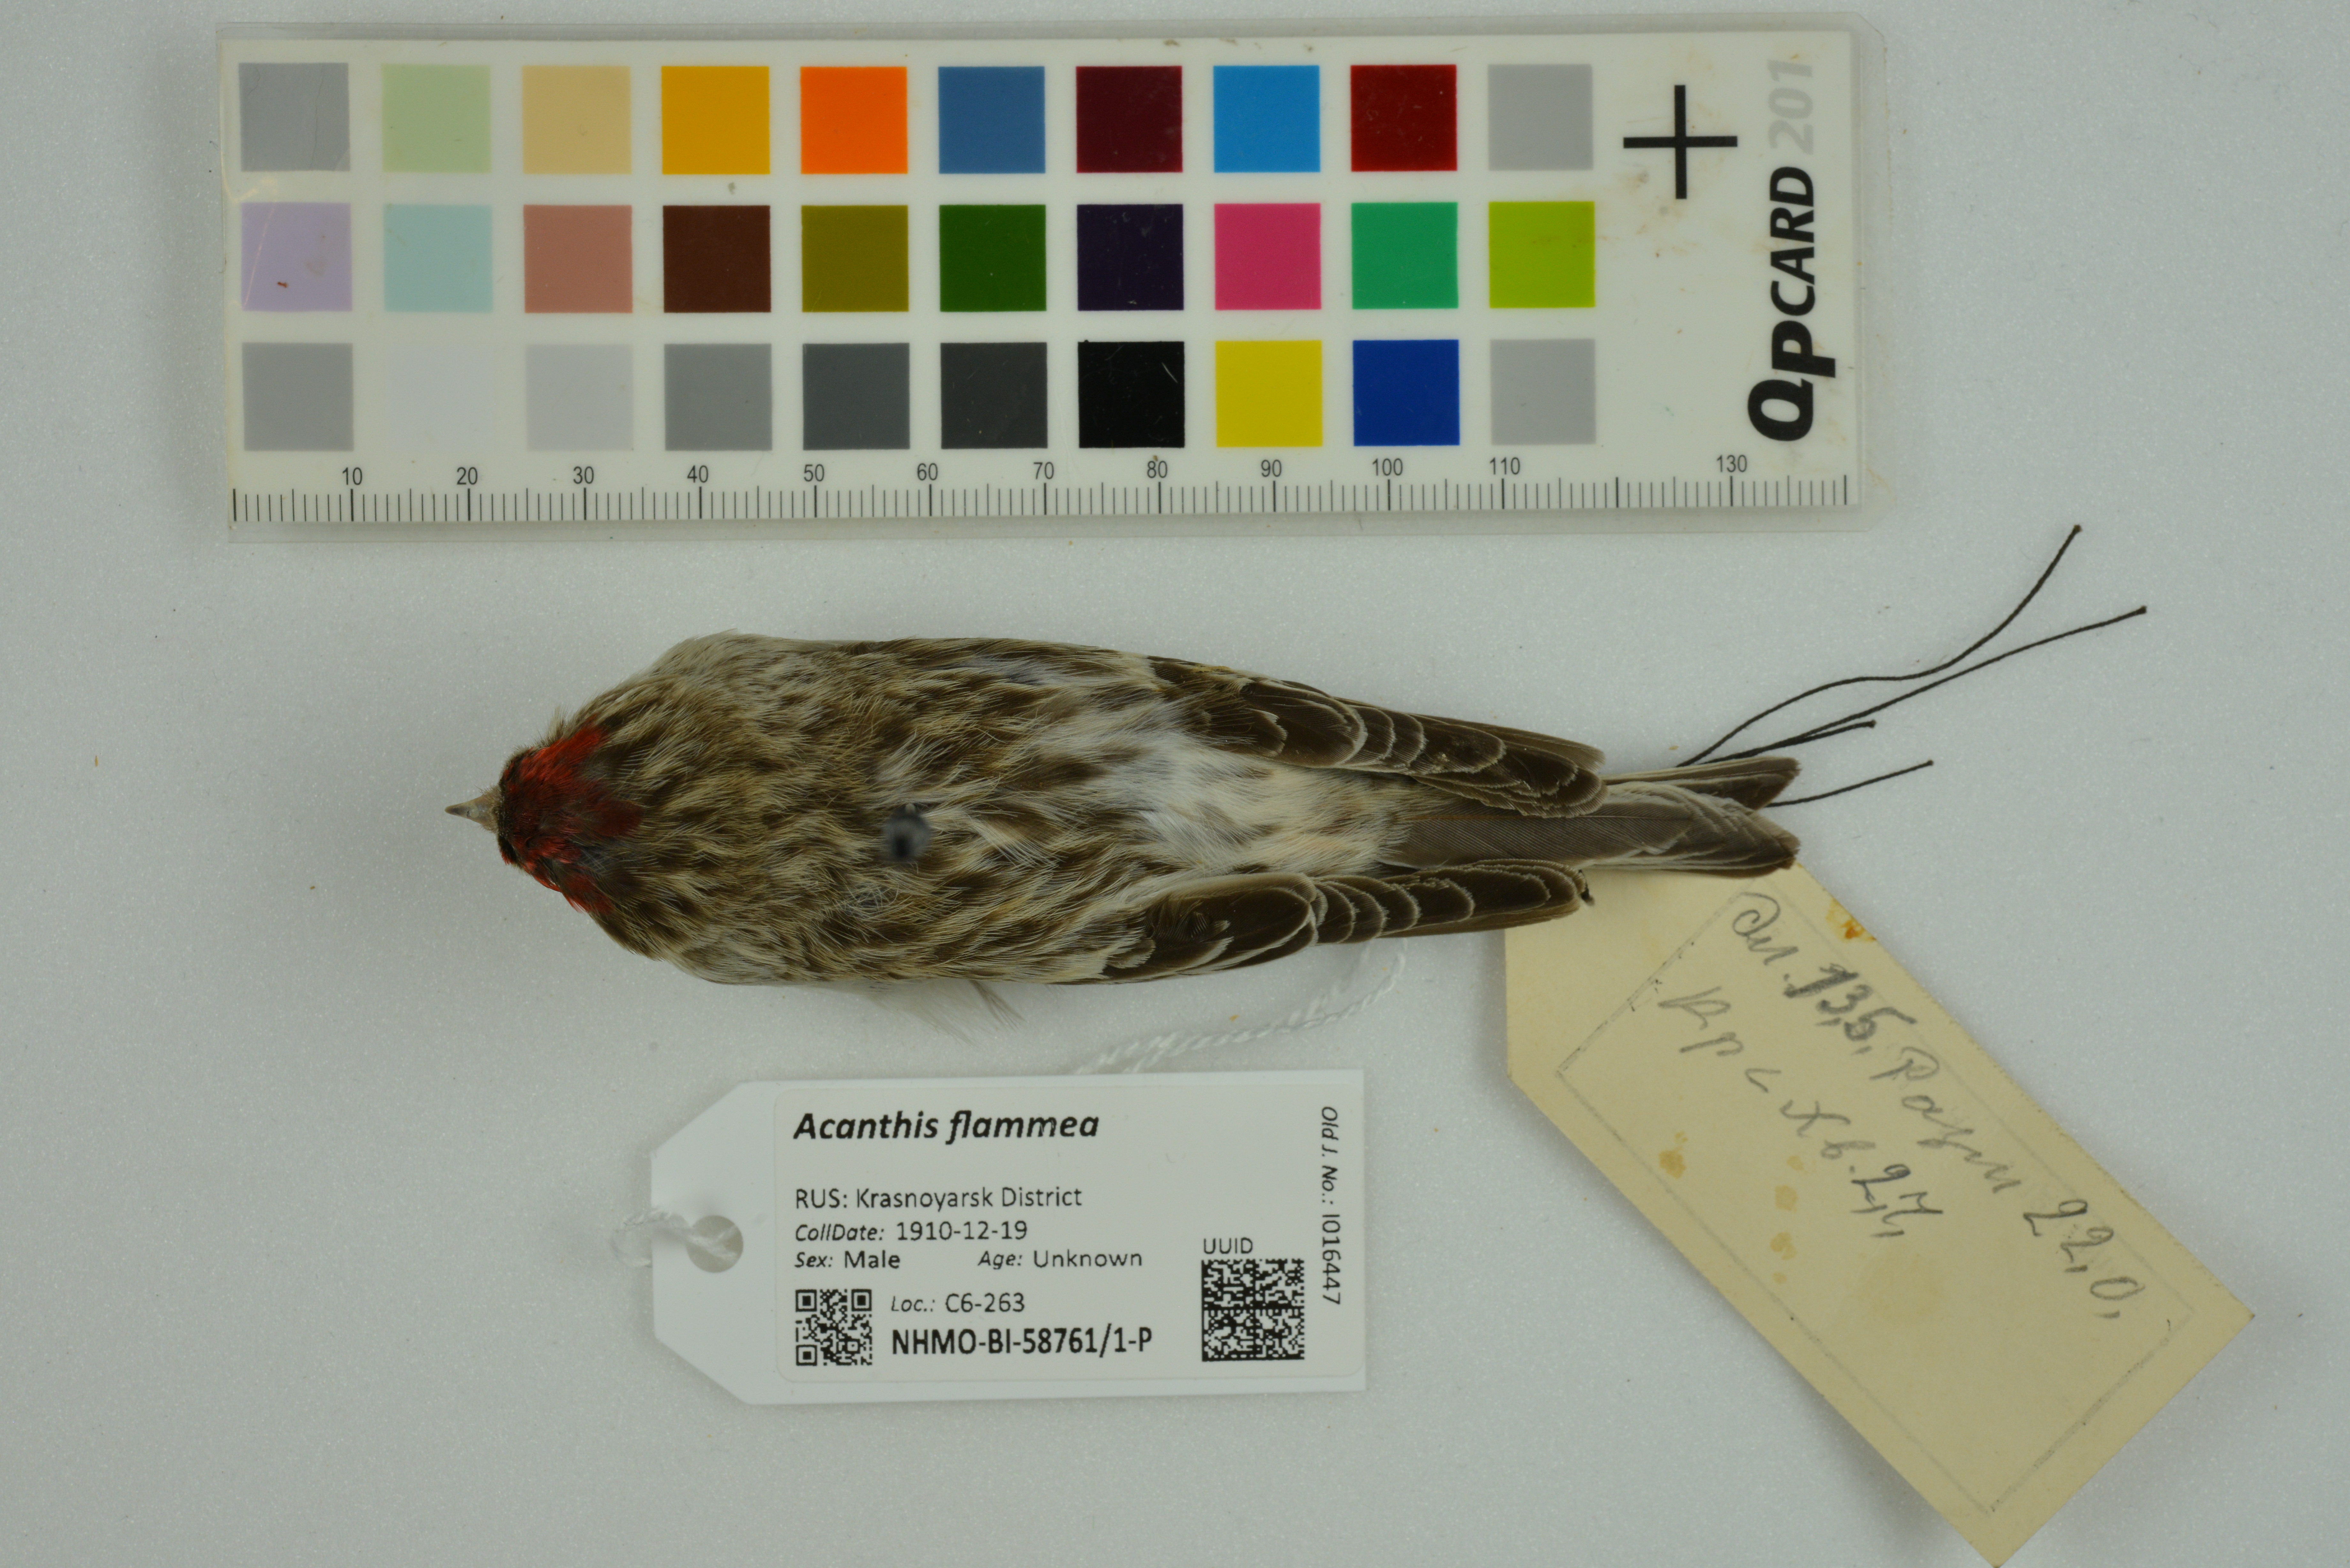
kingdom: Animalia
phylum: Chordata
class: Aves
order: Passeriformes
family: Fringillidae
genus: Acanthis
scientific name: Acanthis flammea
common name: Common redpoll
